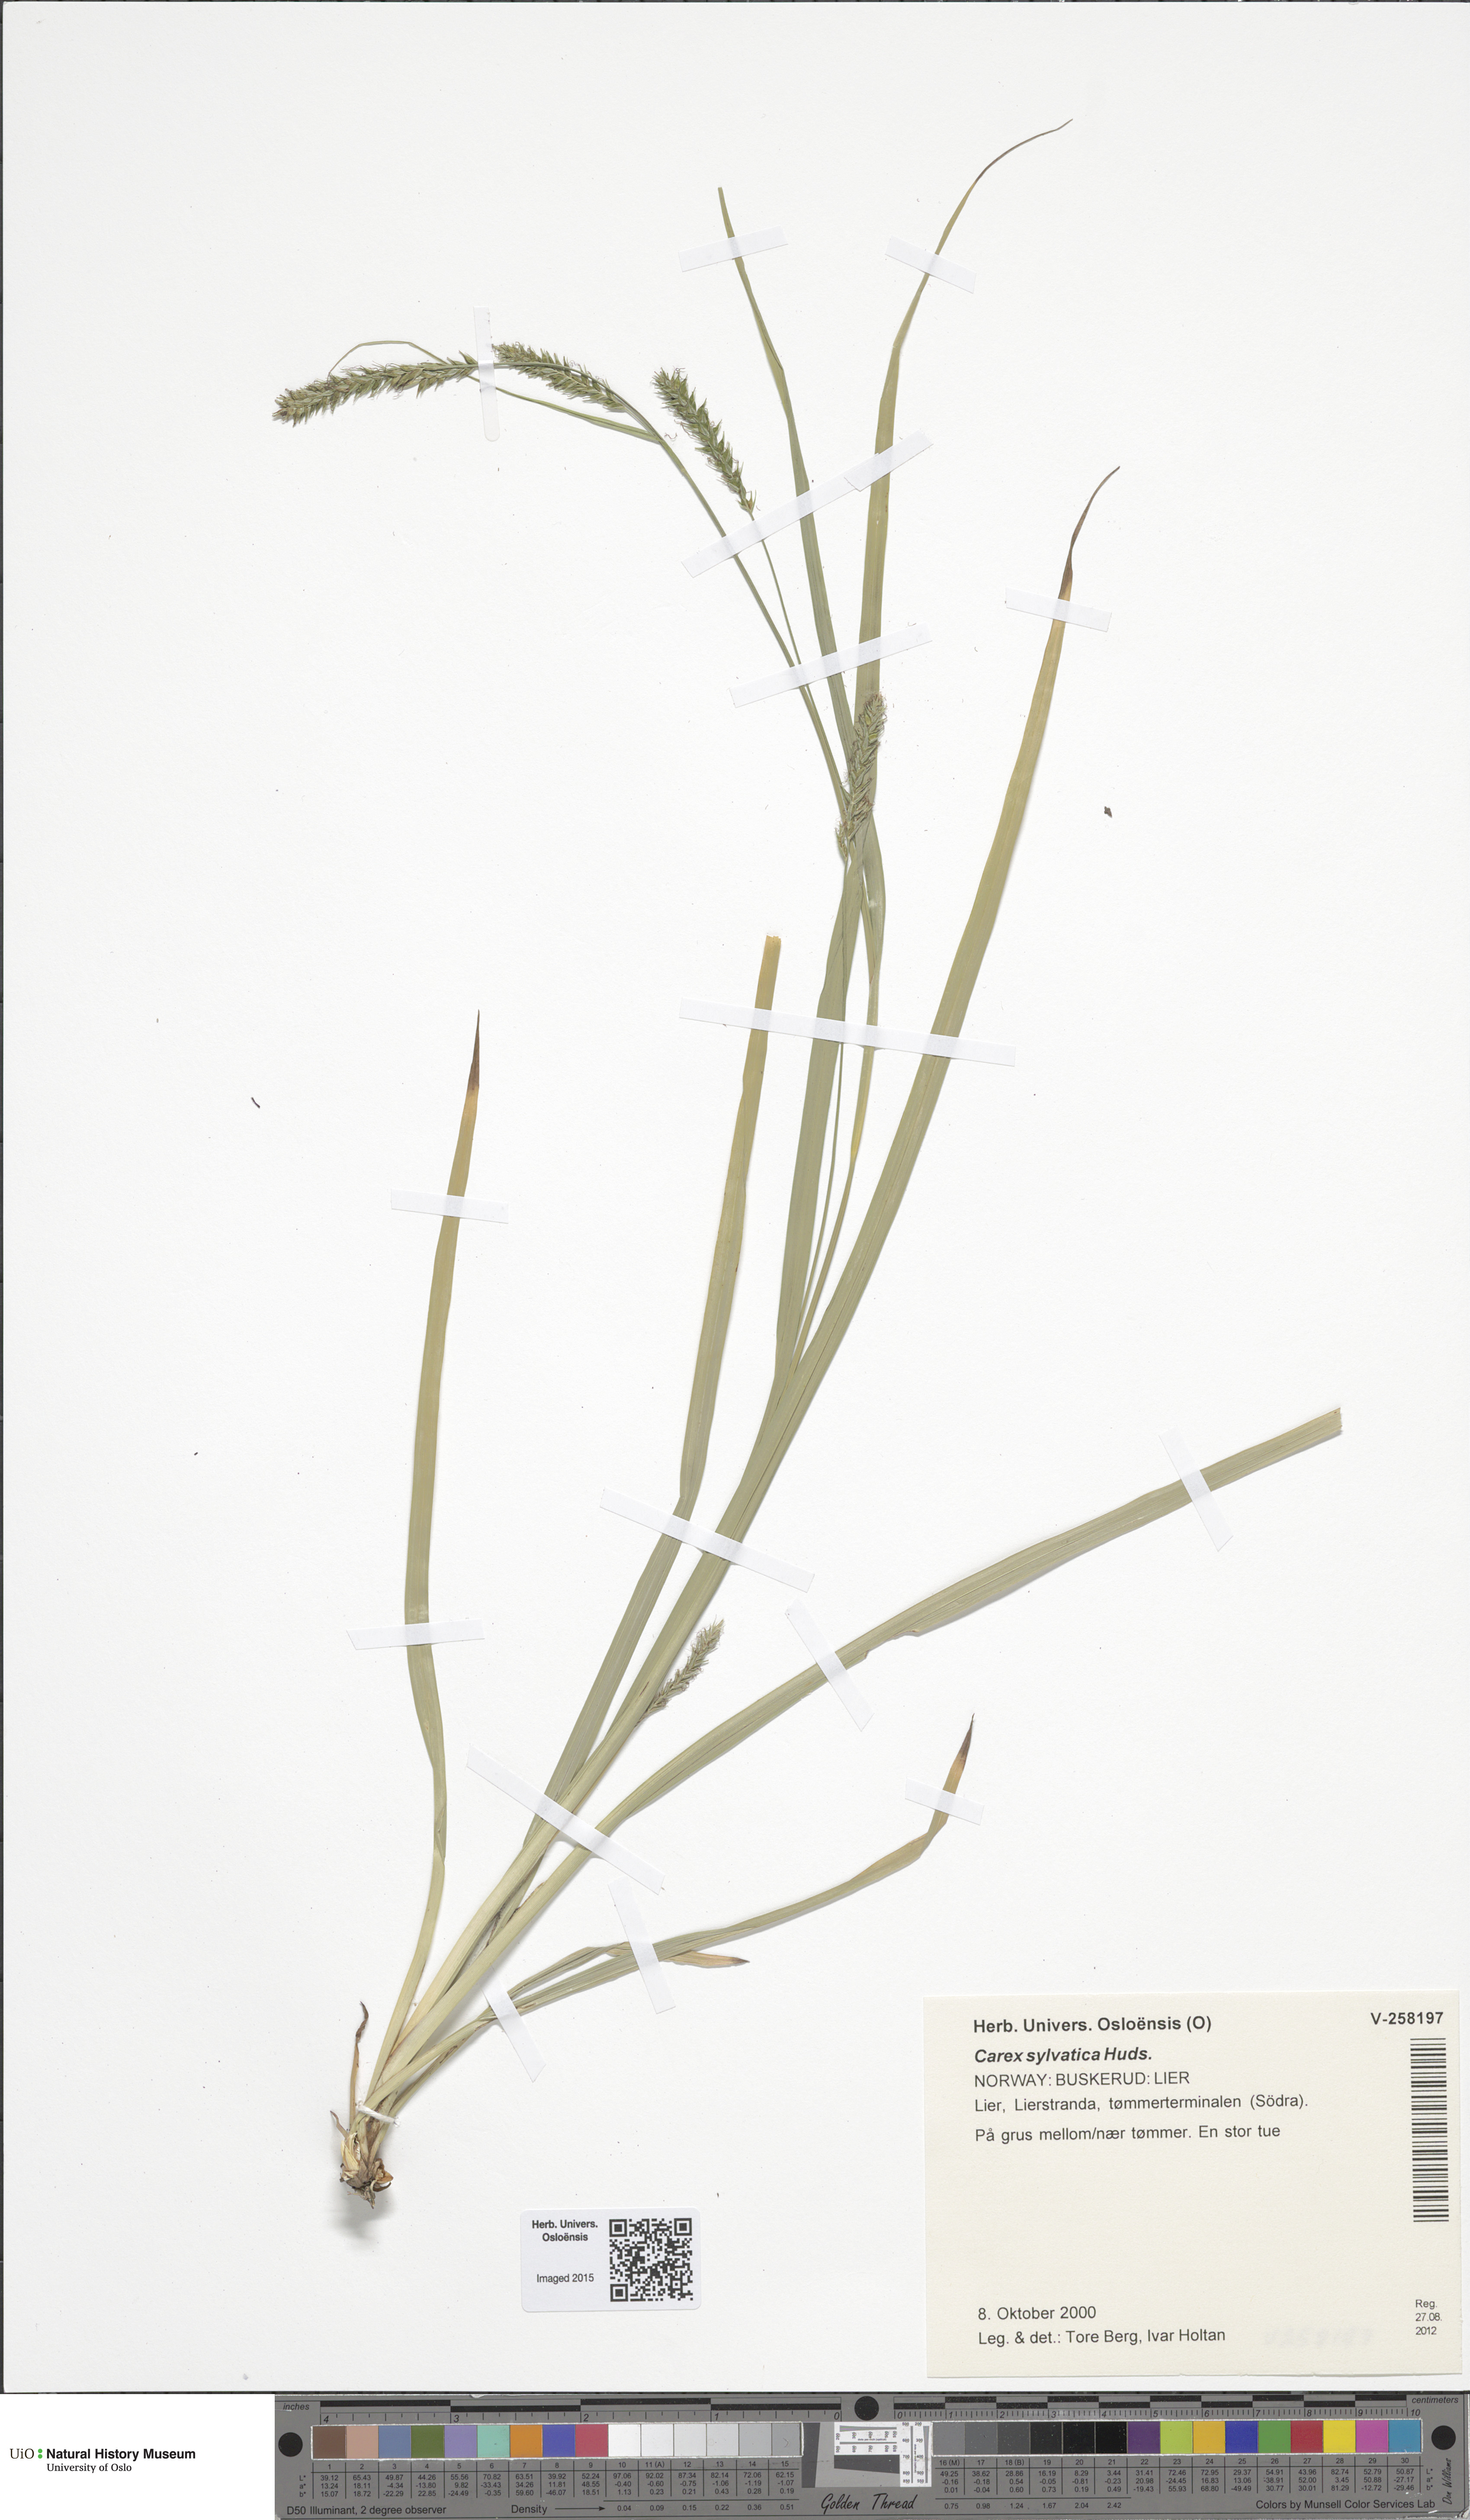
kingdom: Plantae
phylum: Tracheophyta
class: Liliopsida
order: Poales
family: Cyperaceae
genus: Carex
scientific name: Carex sylvatica
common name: Wood-sedge
